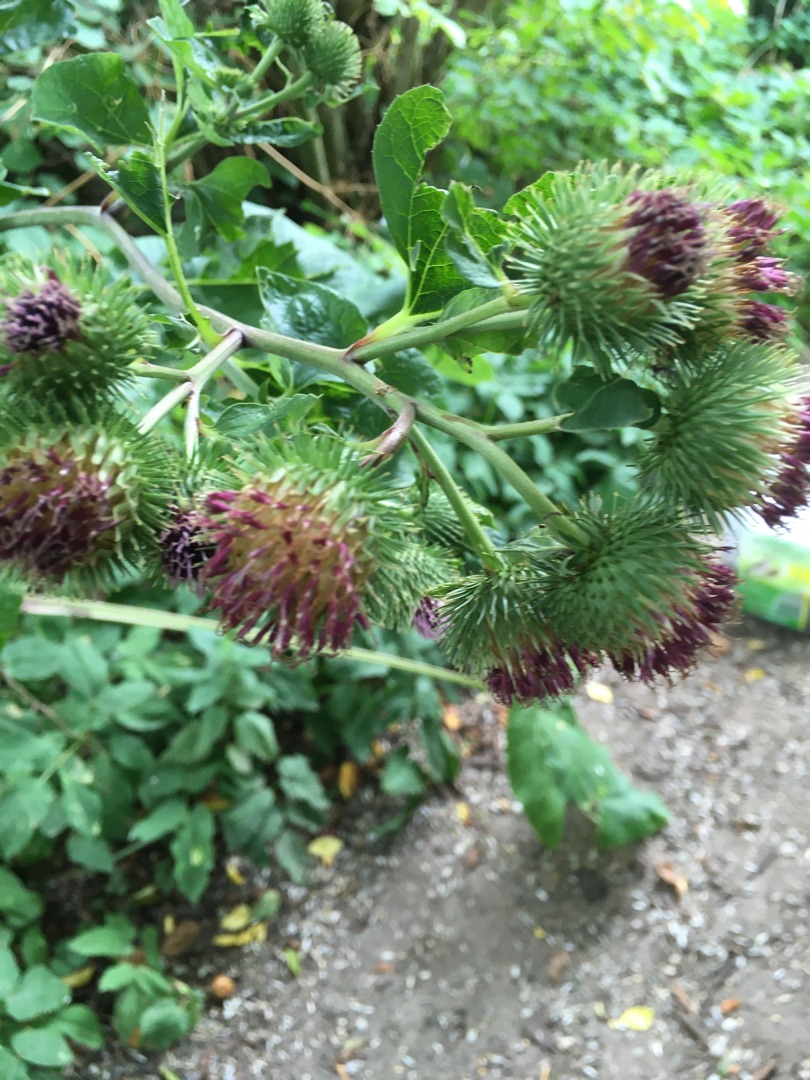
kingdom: Plantae
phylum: Tracheophyta
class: Magnoliopsida
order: Asterales
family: Asteraceae
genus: Arctium
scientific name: Arctium lappa
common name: Glat burre
